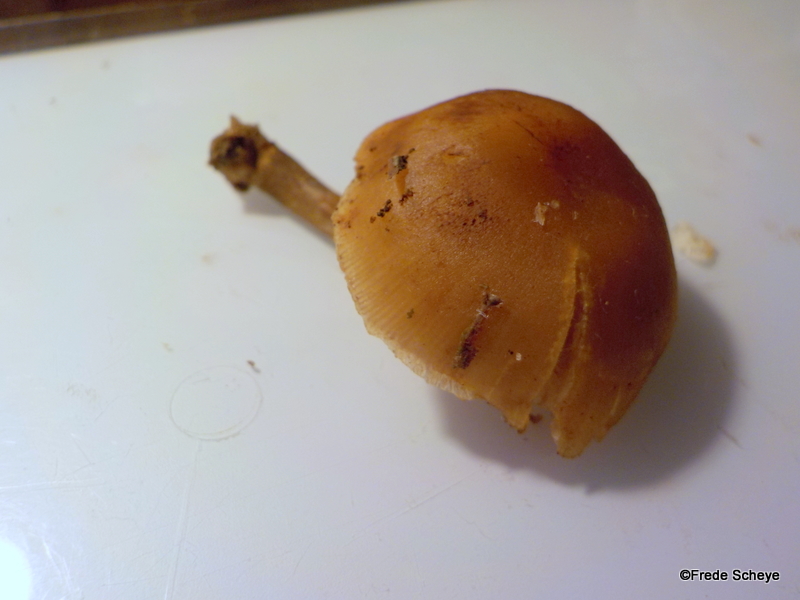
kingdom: Fungi
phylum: Basidiomycota
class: Agaricomycetes
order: Agaricales
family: Hymenogastraceae
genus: Galerina
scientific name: Galerina marginata
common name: randbæltet hjelmhat
